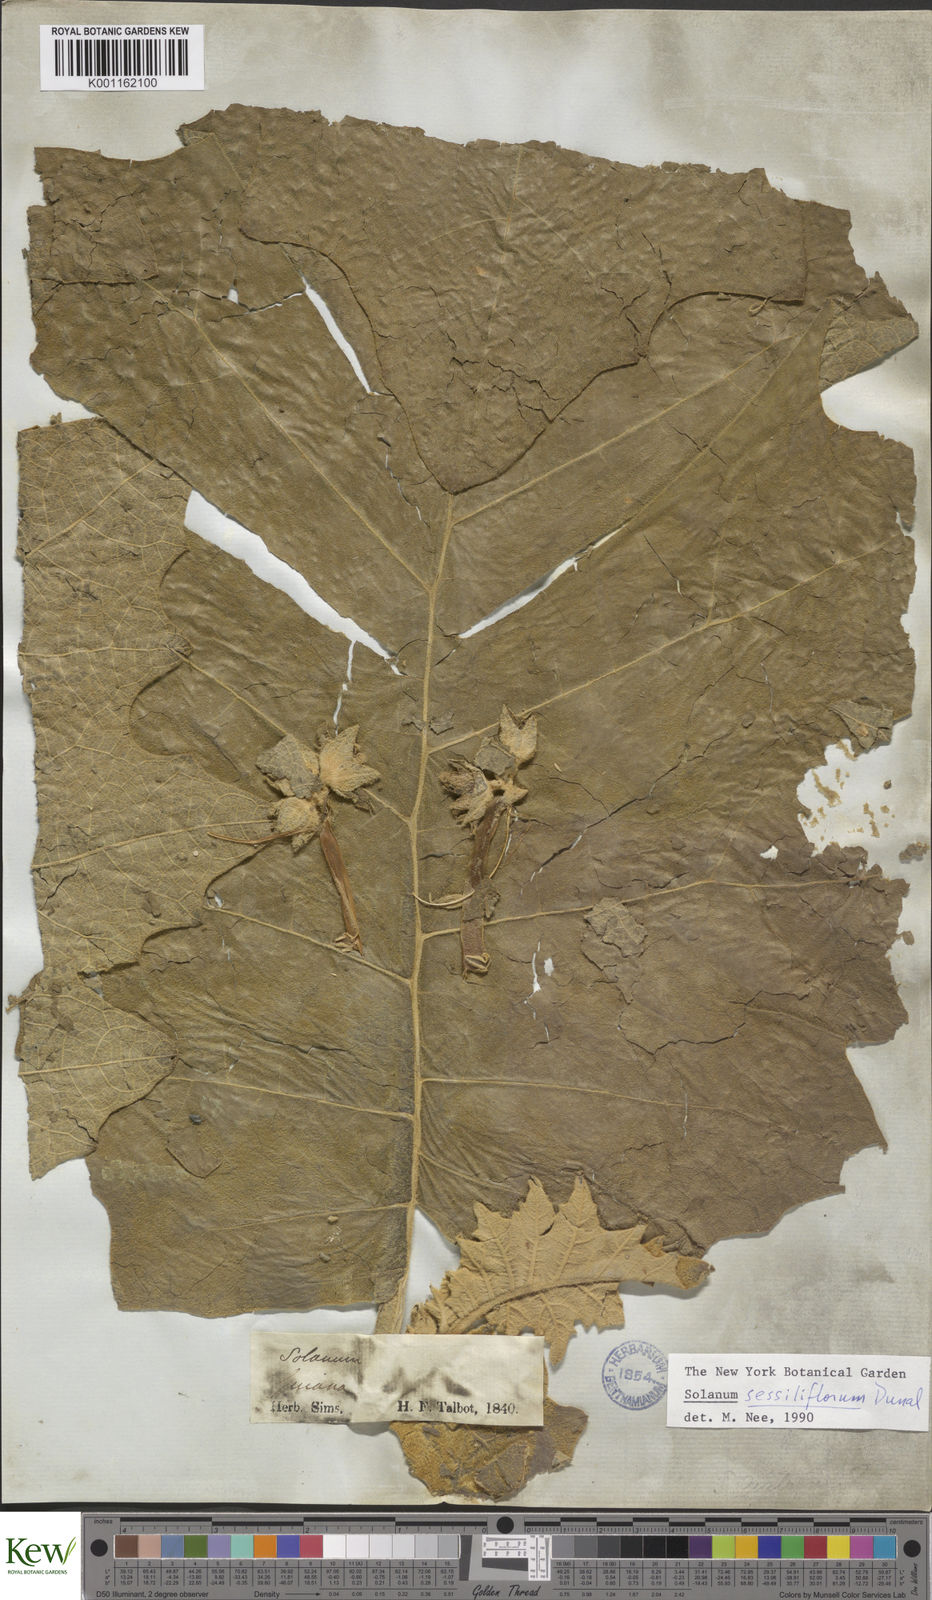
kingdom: Plantae
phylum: Tracheophyta
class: Magnoliopsida
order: Solanales
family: Solanaceae
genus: Solanum
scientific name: Solanum sessiliflorum
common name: Orinoco-apple
